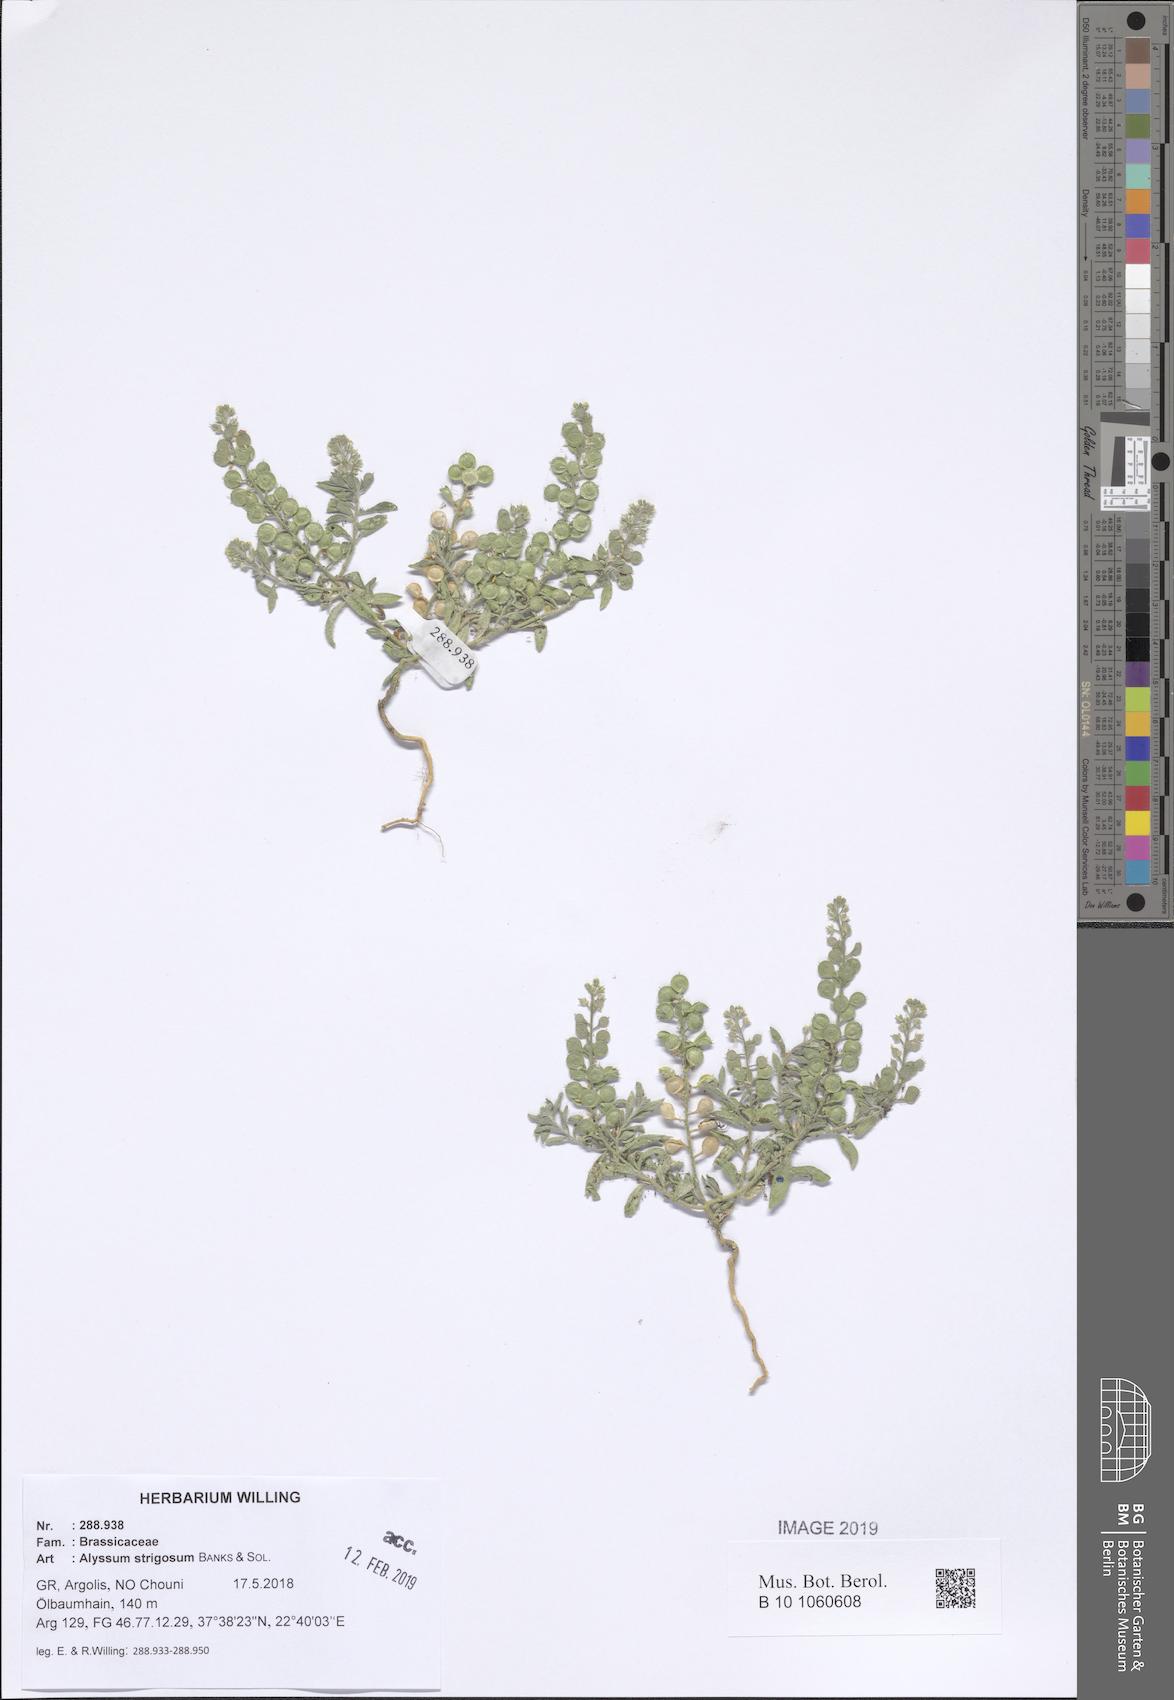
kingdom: Plantae
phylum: Tracheophyta
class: Magnoliopsida
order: Brassicales
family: Brassicaceae
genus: Alyssum
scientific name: Alyssum strigosum
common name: Alyssum
